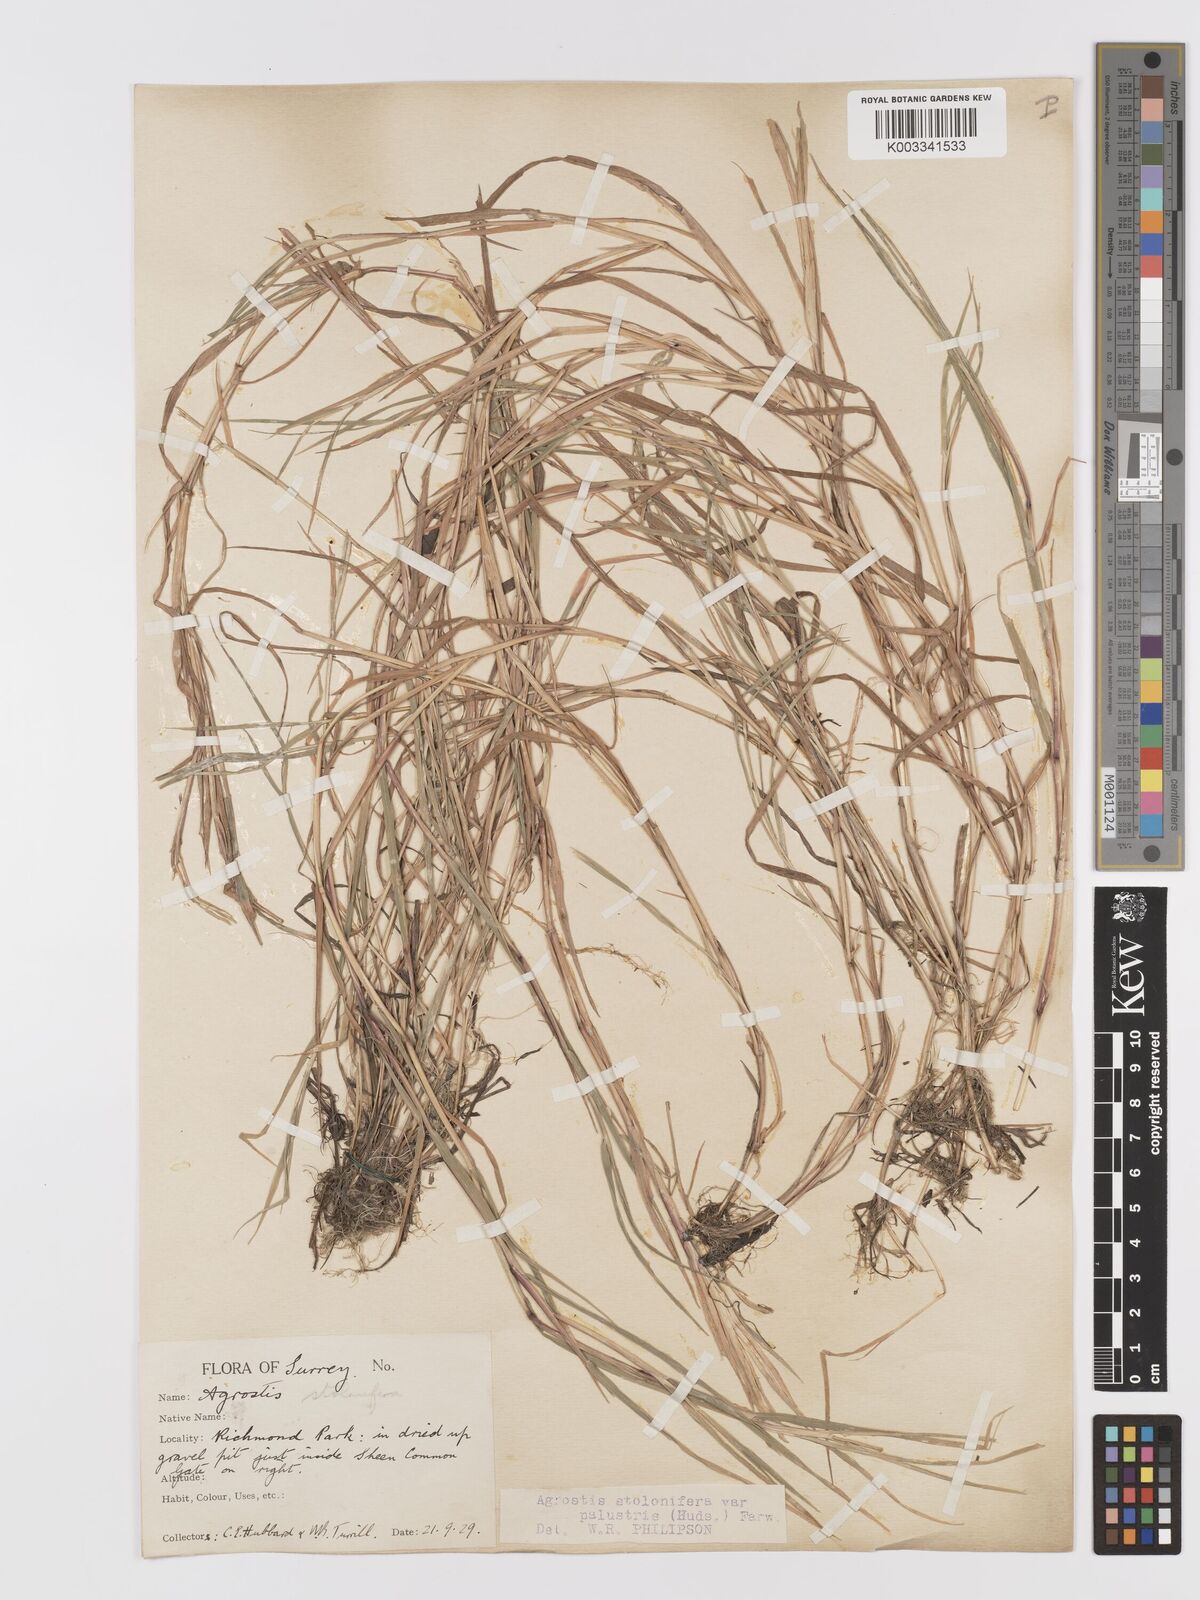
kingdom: Plantae
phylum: Tracheophyta
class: Liliopsida
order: Poales
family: Poaceae
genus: Agrostis
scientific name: Agrostis stolonifera
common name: Creeping bentgrass
